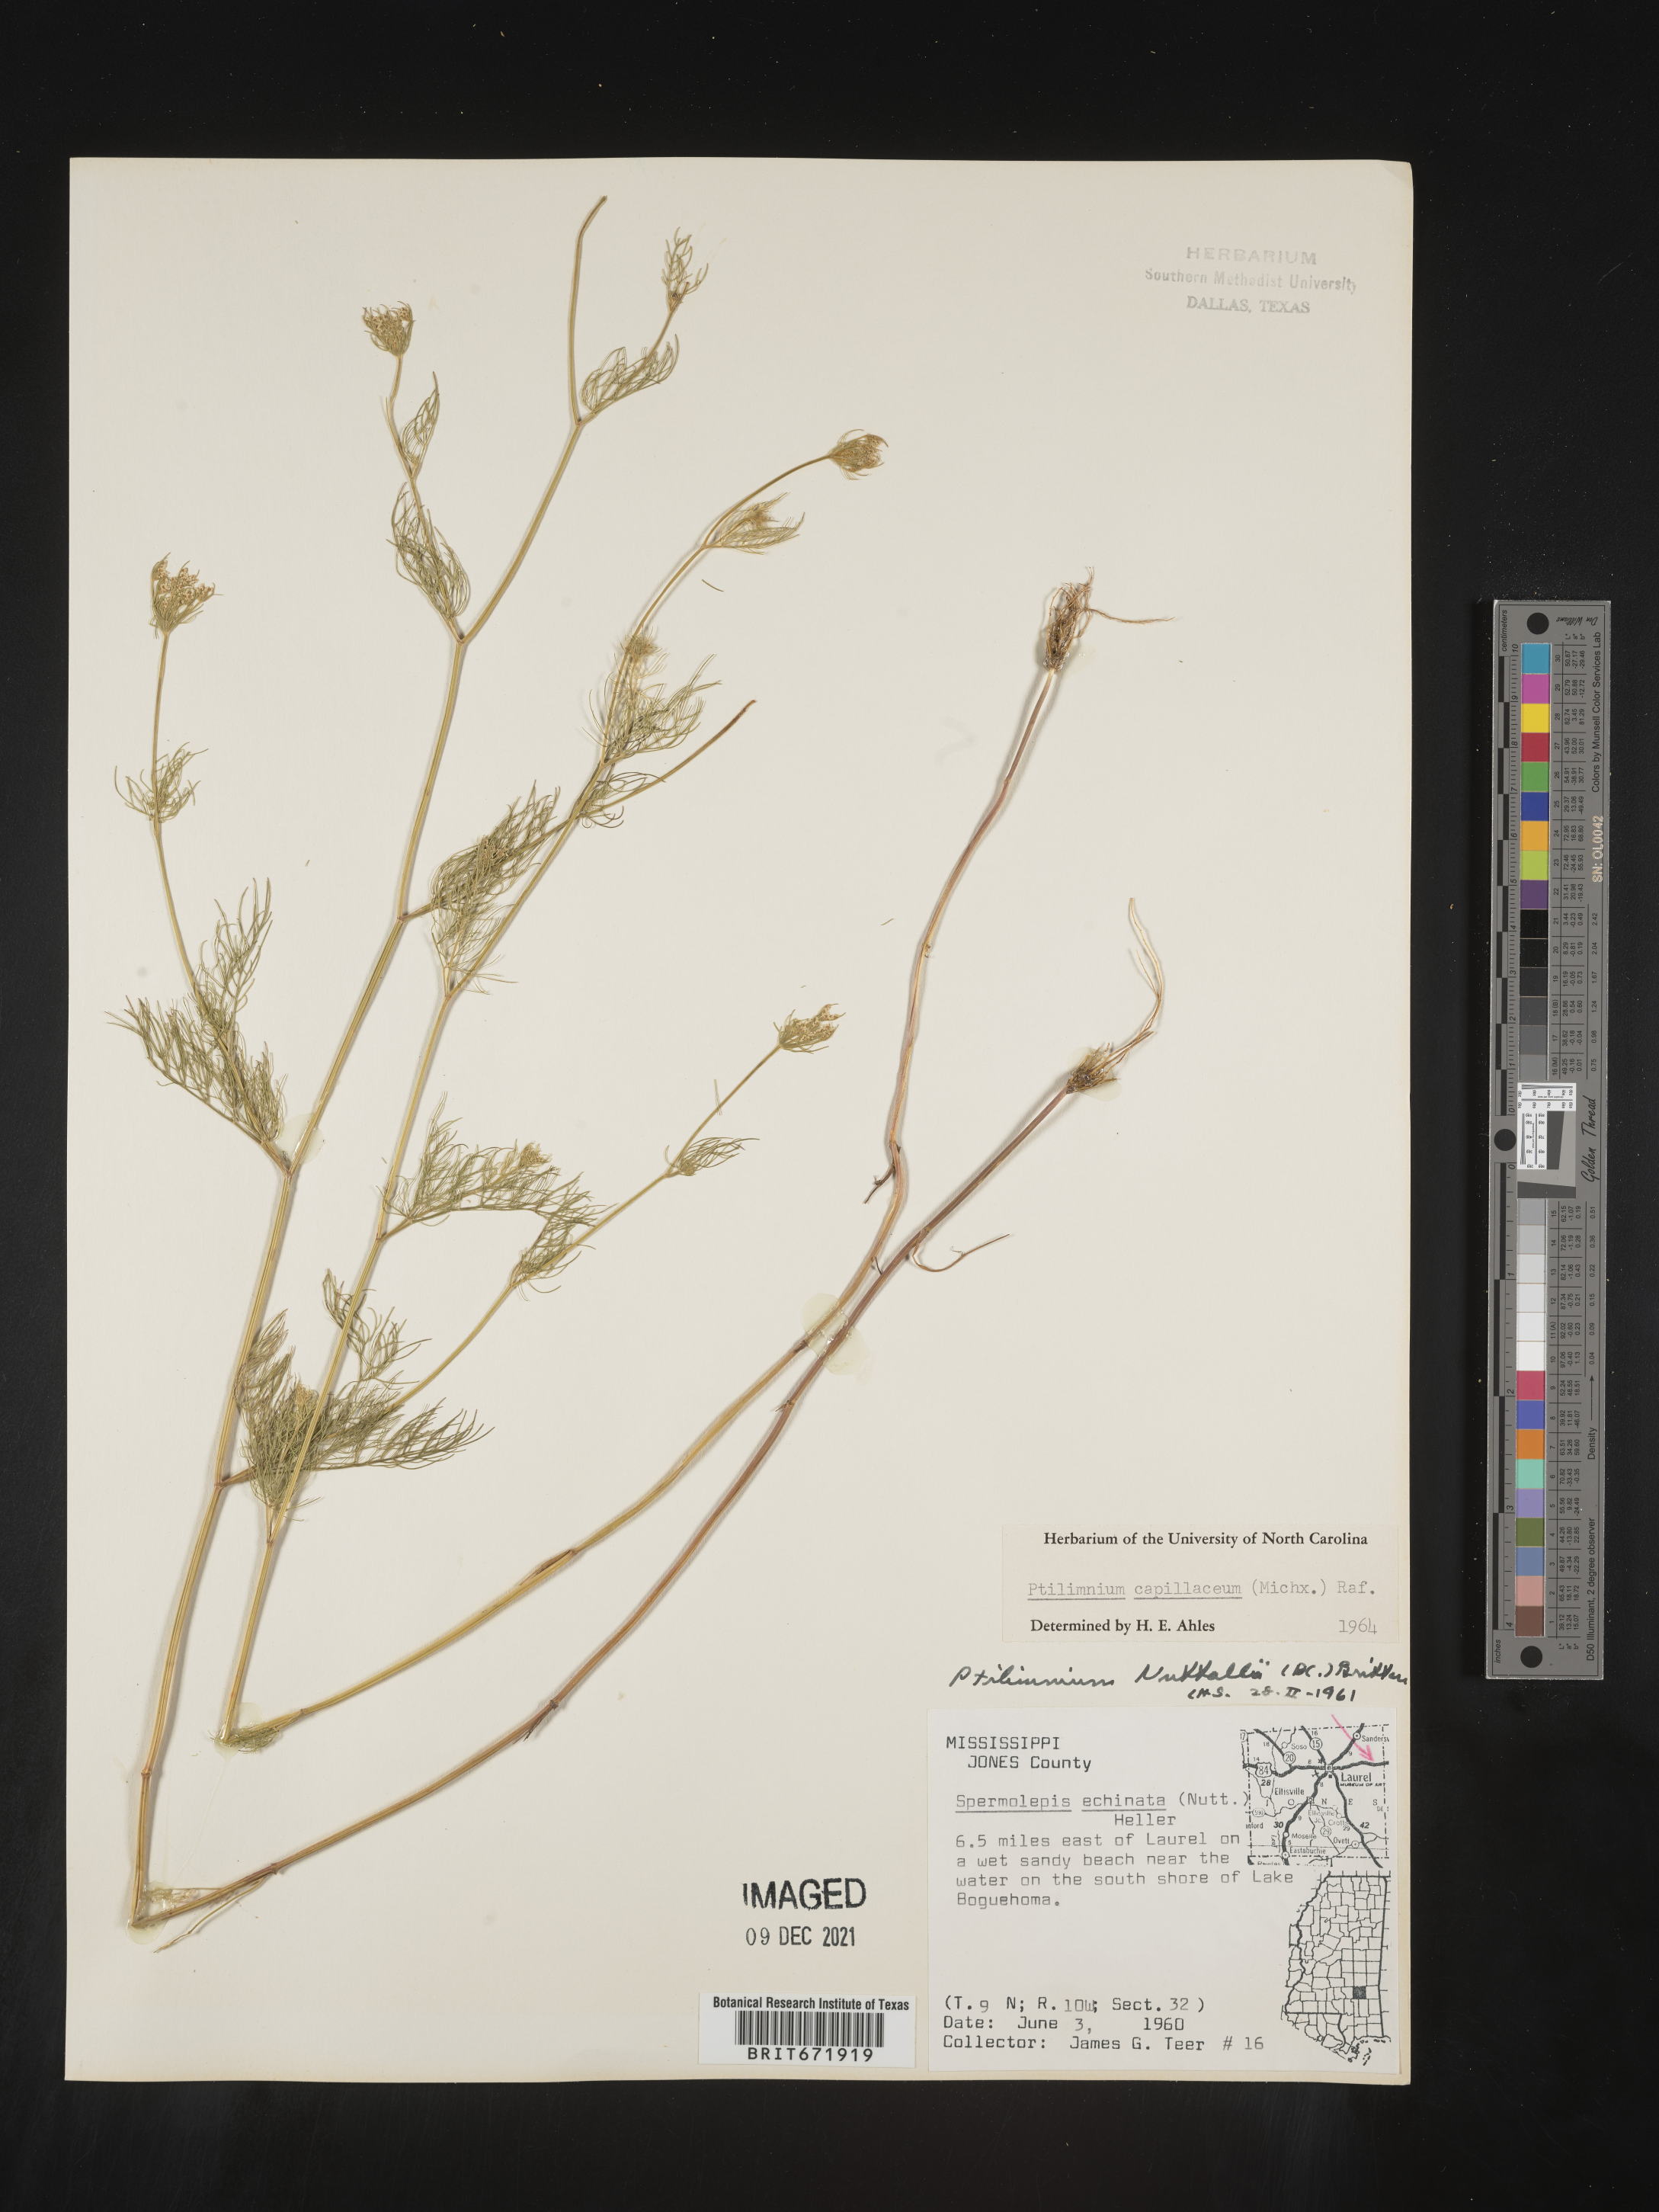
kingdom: Plantae
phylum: Tracheophyta
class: Magnoliopsida
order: Apiales
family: Apiaceae
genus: Ptilimnium
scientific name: Ptilimnium capillaceum
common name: Herbwilliam
